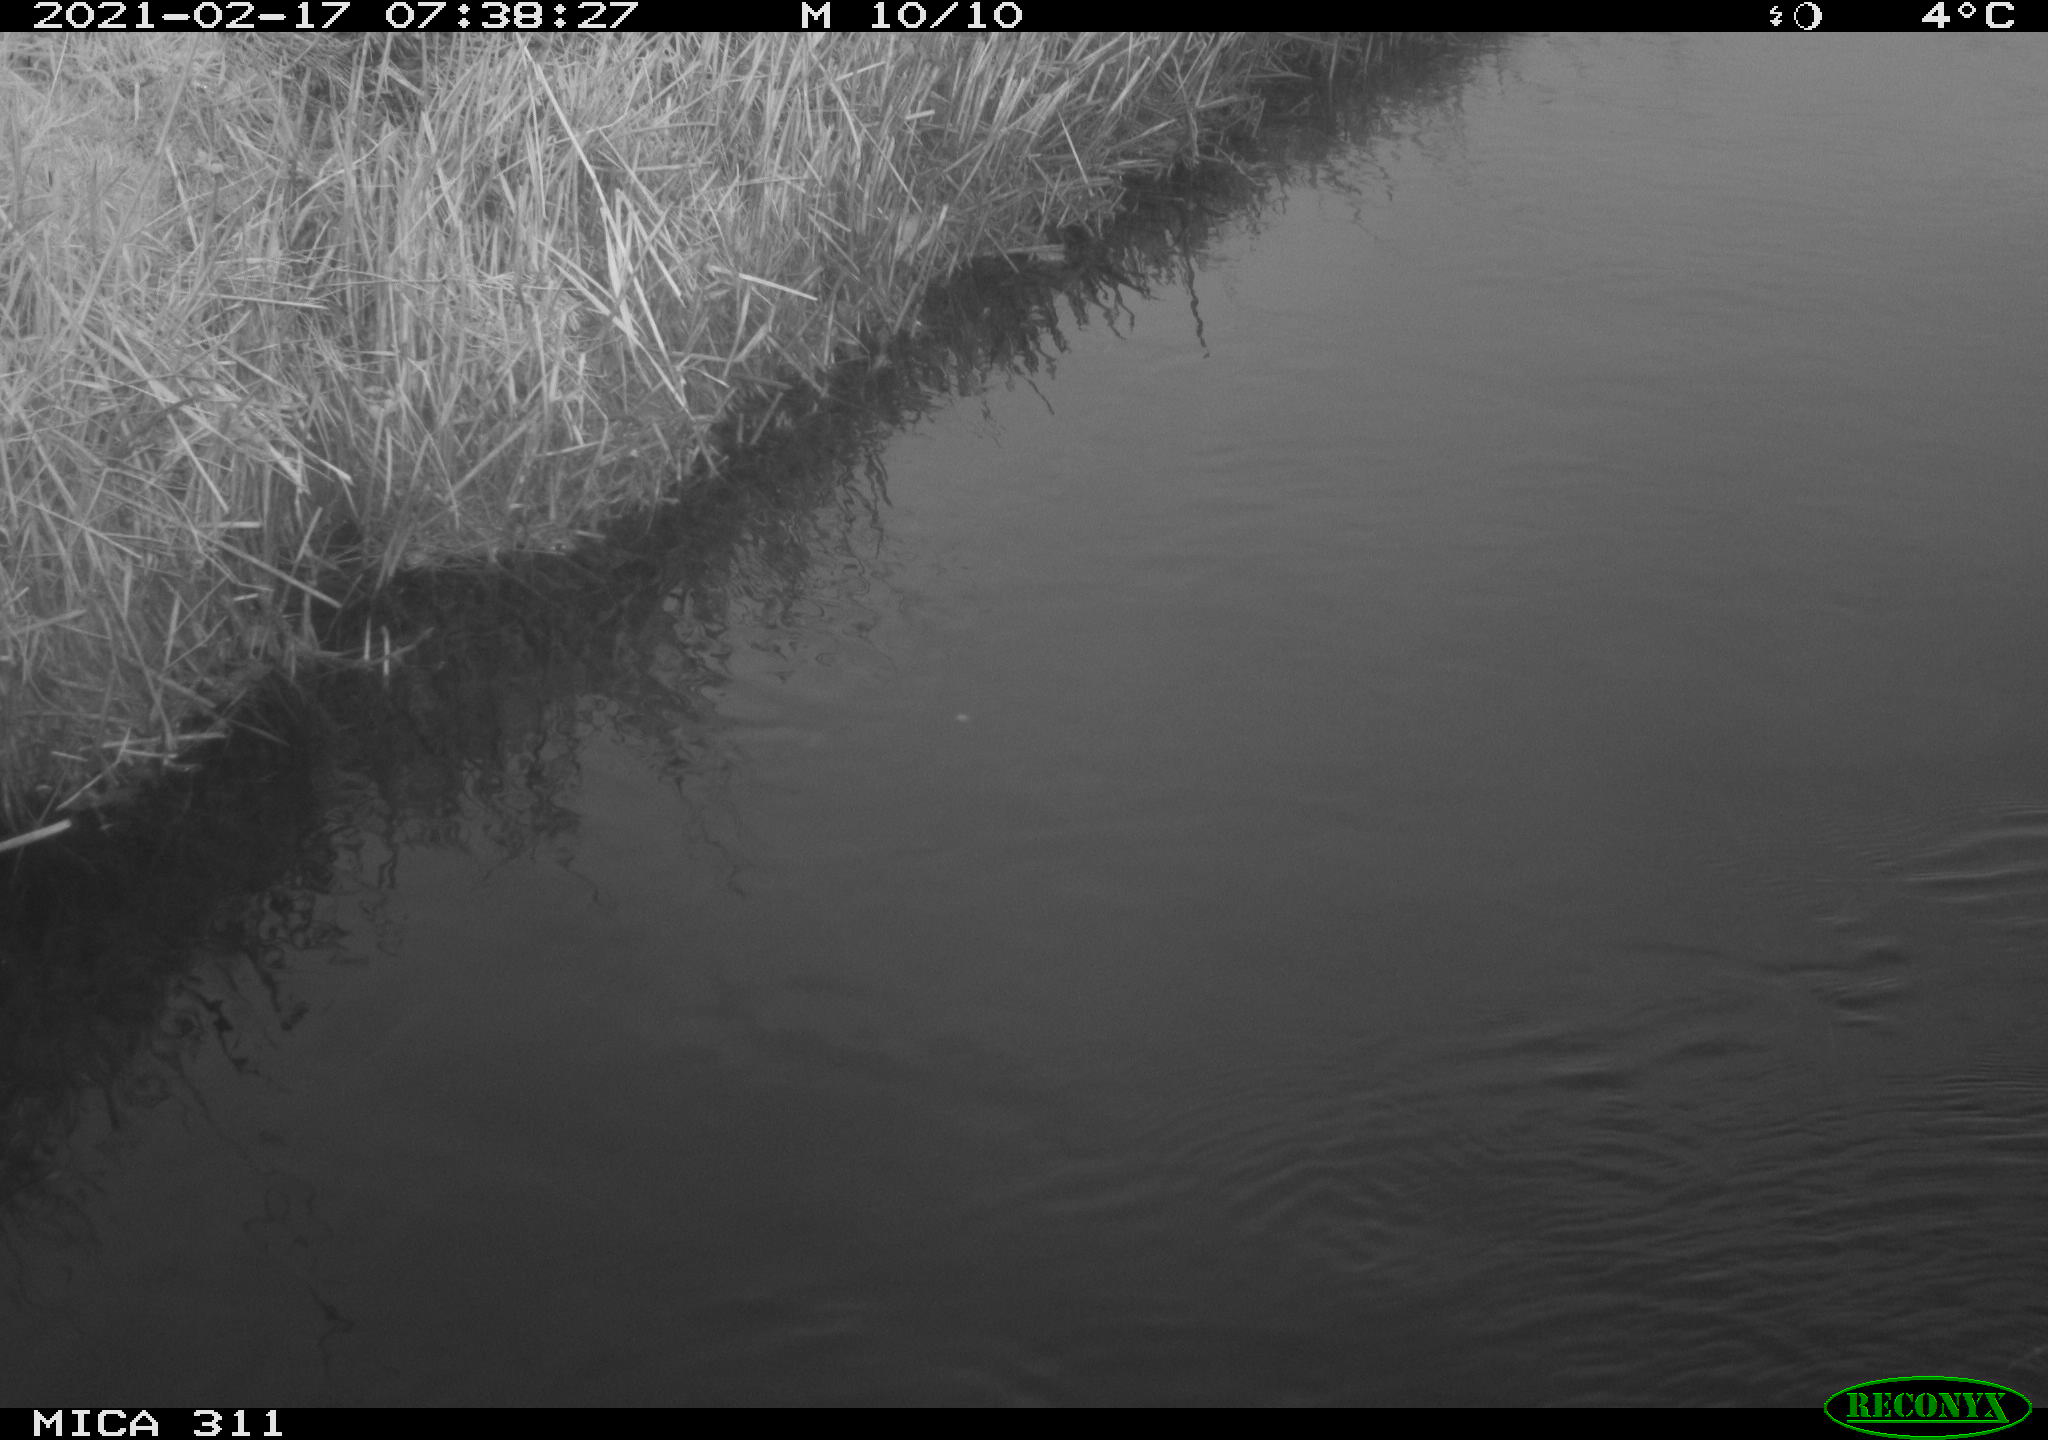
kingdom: Animalia
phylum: Chordata
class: Aves
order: Gruiformes
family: Rallidae
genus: Gallinula
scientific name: Gallinula chloropus
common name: Common moorhen
